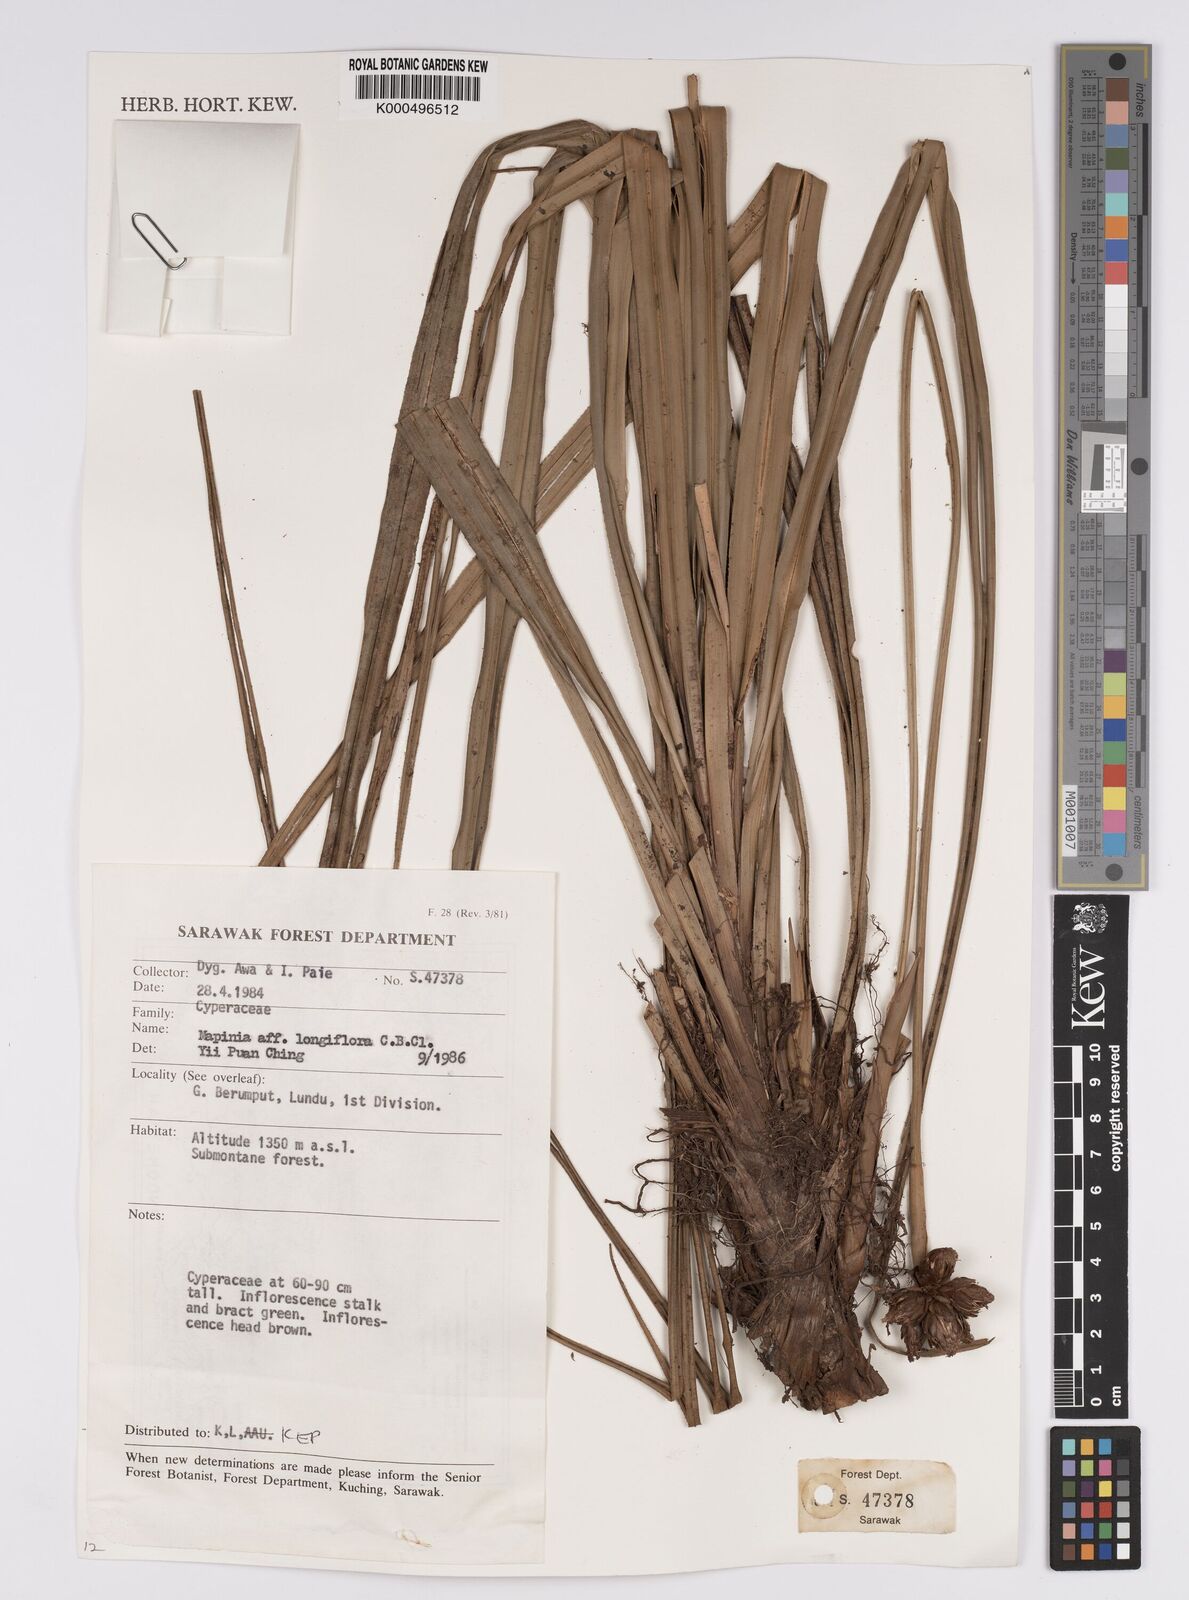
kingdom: Plantae
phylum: Tracheophyta
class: Liliopsida
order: Poales
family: Cyperaceae
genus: Mapania
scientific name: Mapania longiflora
